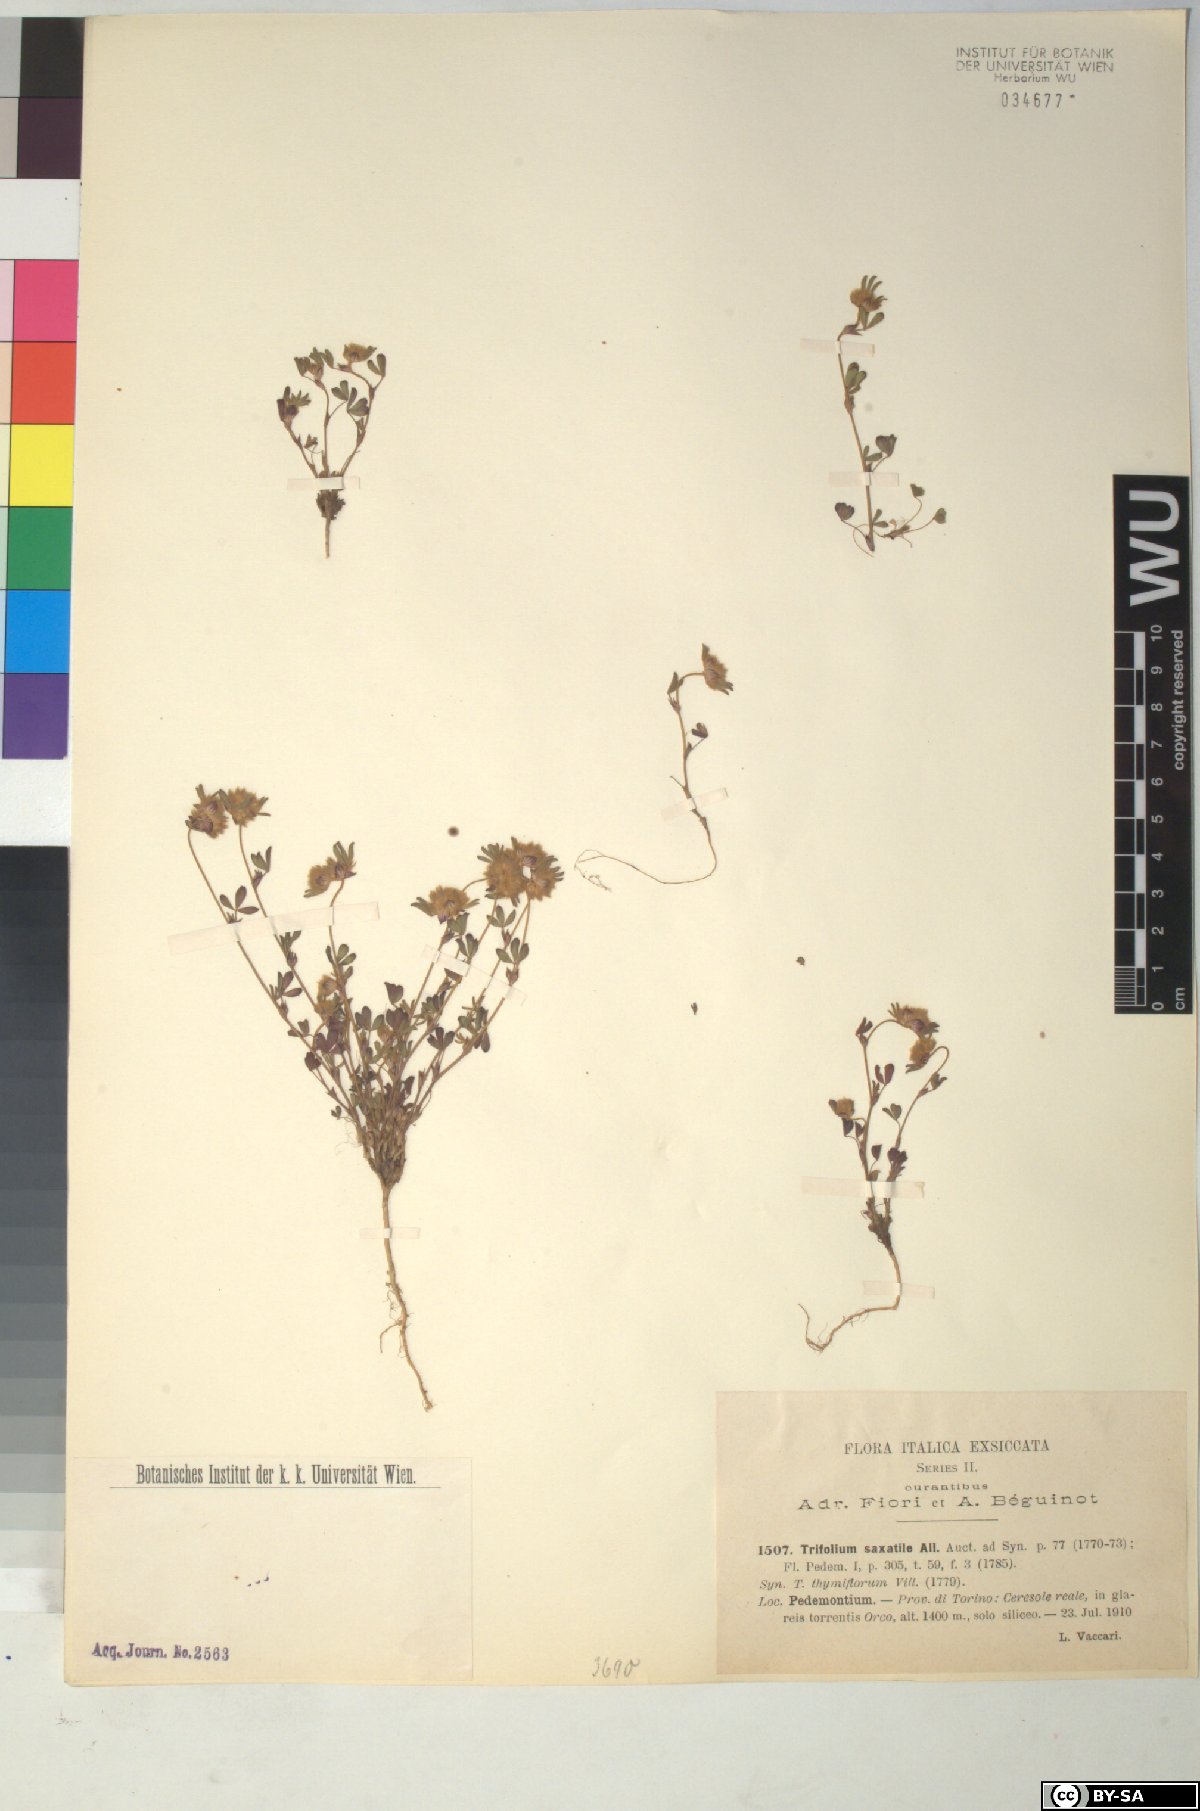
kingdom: Plantae
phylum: Tracheophyta
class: Magnoliopsida
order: Fabales
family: Fabaceae
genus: Trifolium
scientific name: Trifolium saxatile
